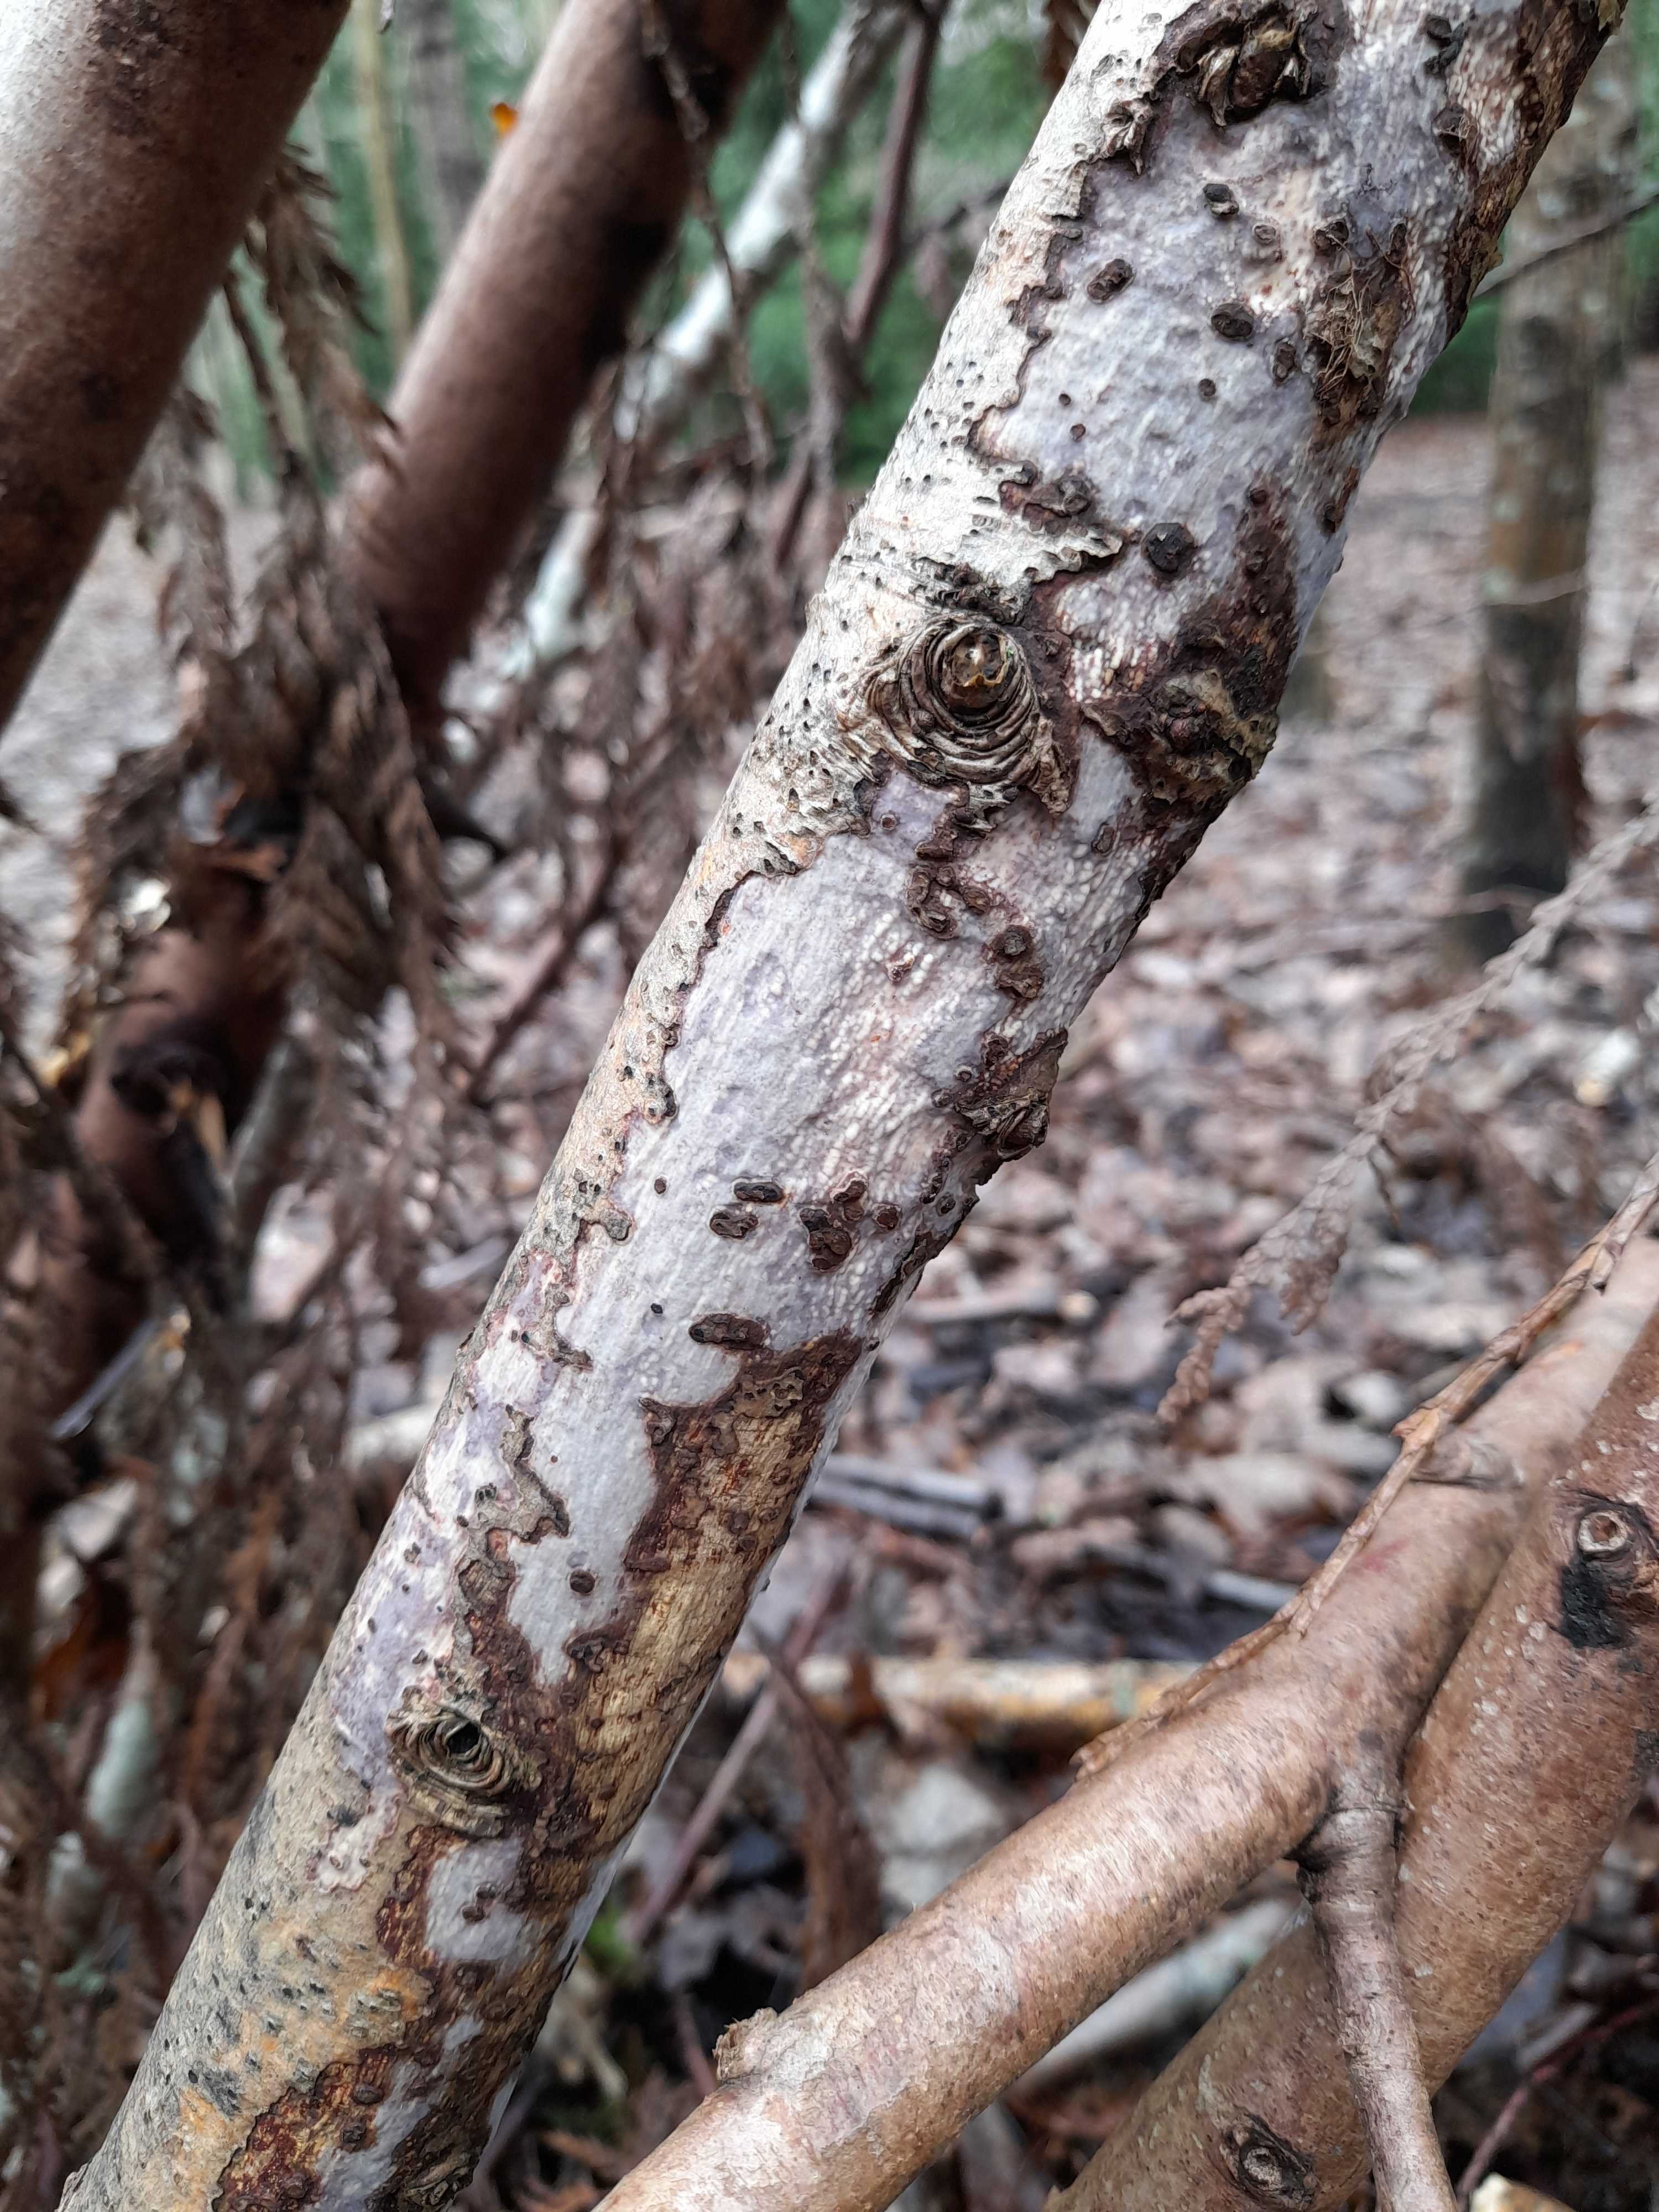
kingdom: Fungi
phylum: Basidiomycota
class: Agaricomycetes
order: Corticiales
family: Vuilleminiaceae
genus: Vuilleminia
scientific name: Vuilleminia comedens
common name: almindelig barksprænger
